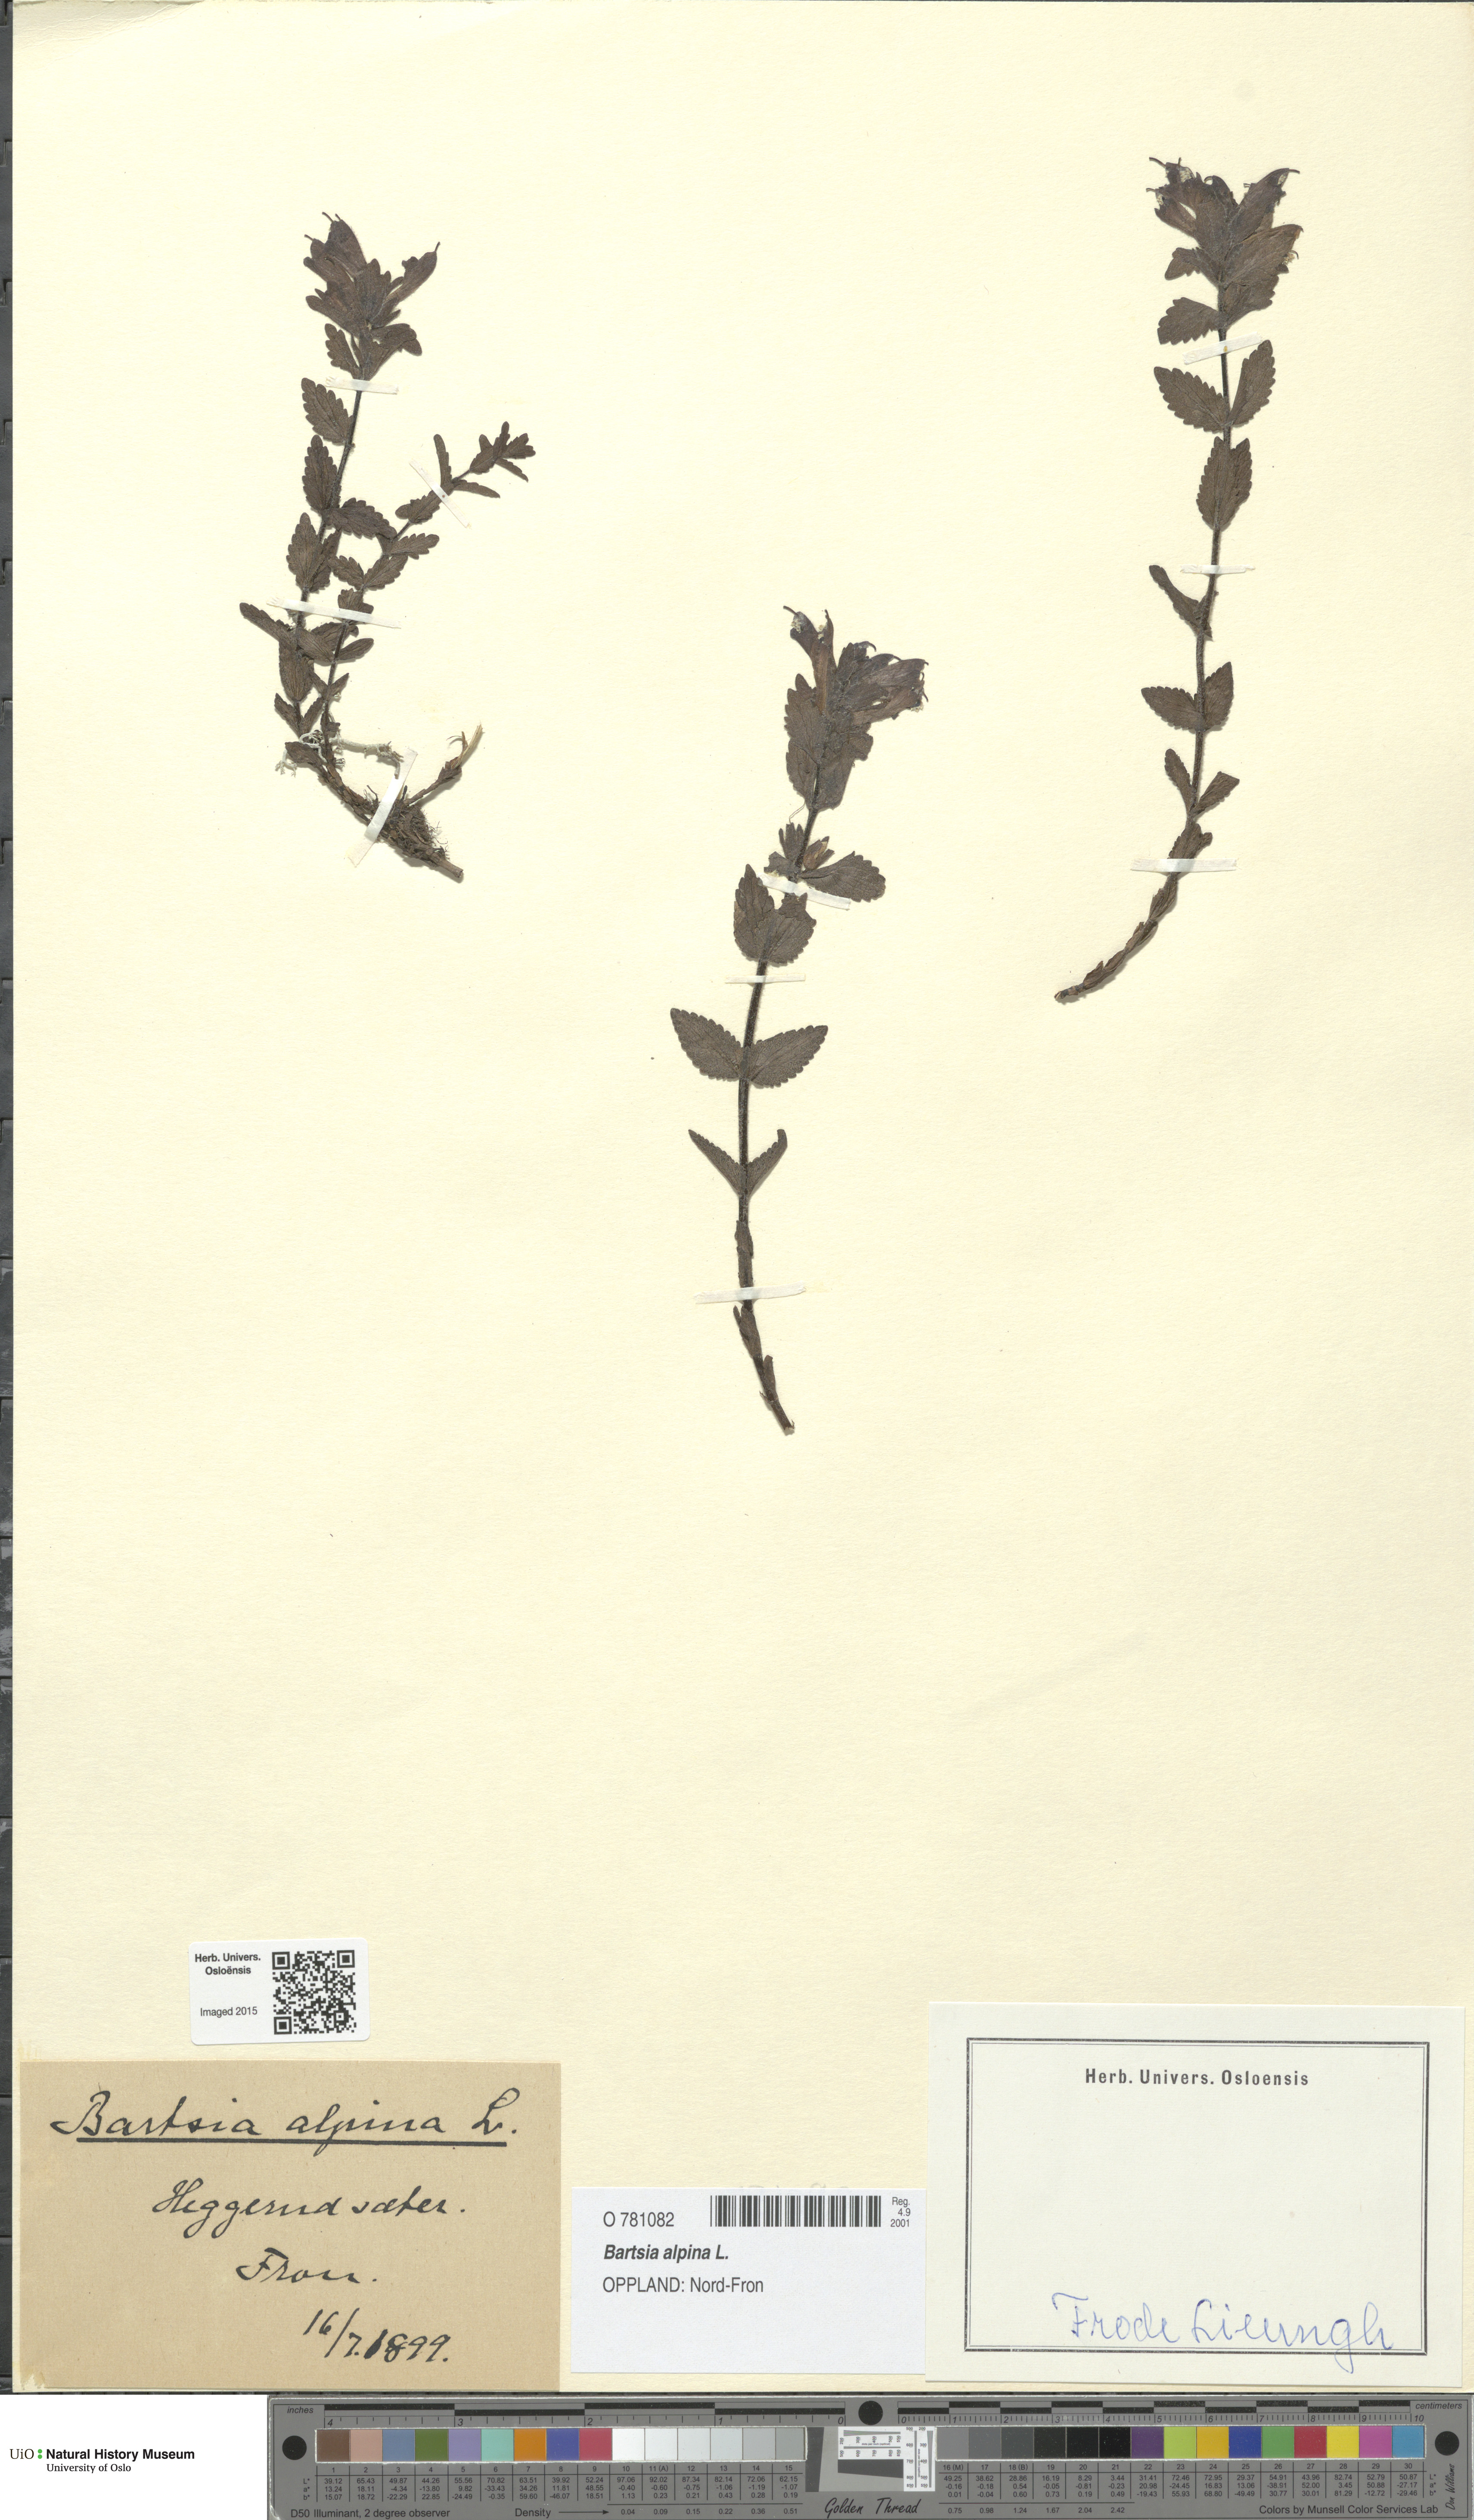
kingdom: Plantae
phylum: Tracheophyta
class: Magnoliopsida
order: Lamiales
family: Orobanchaceae
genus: Bartsia
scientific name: Bartsia alpina
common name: Alpine bartsia
